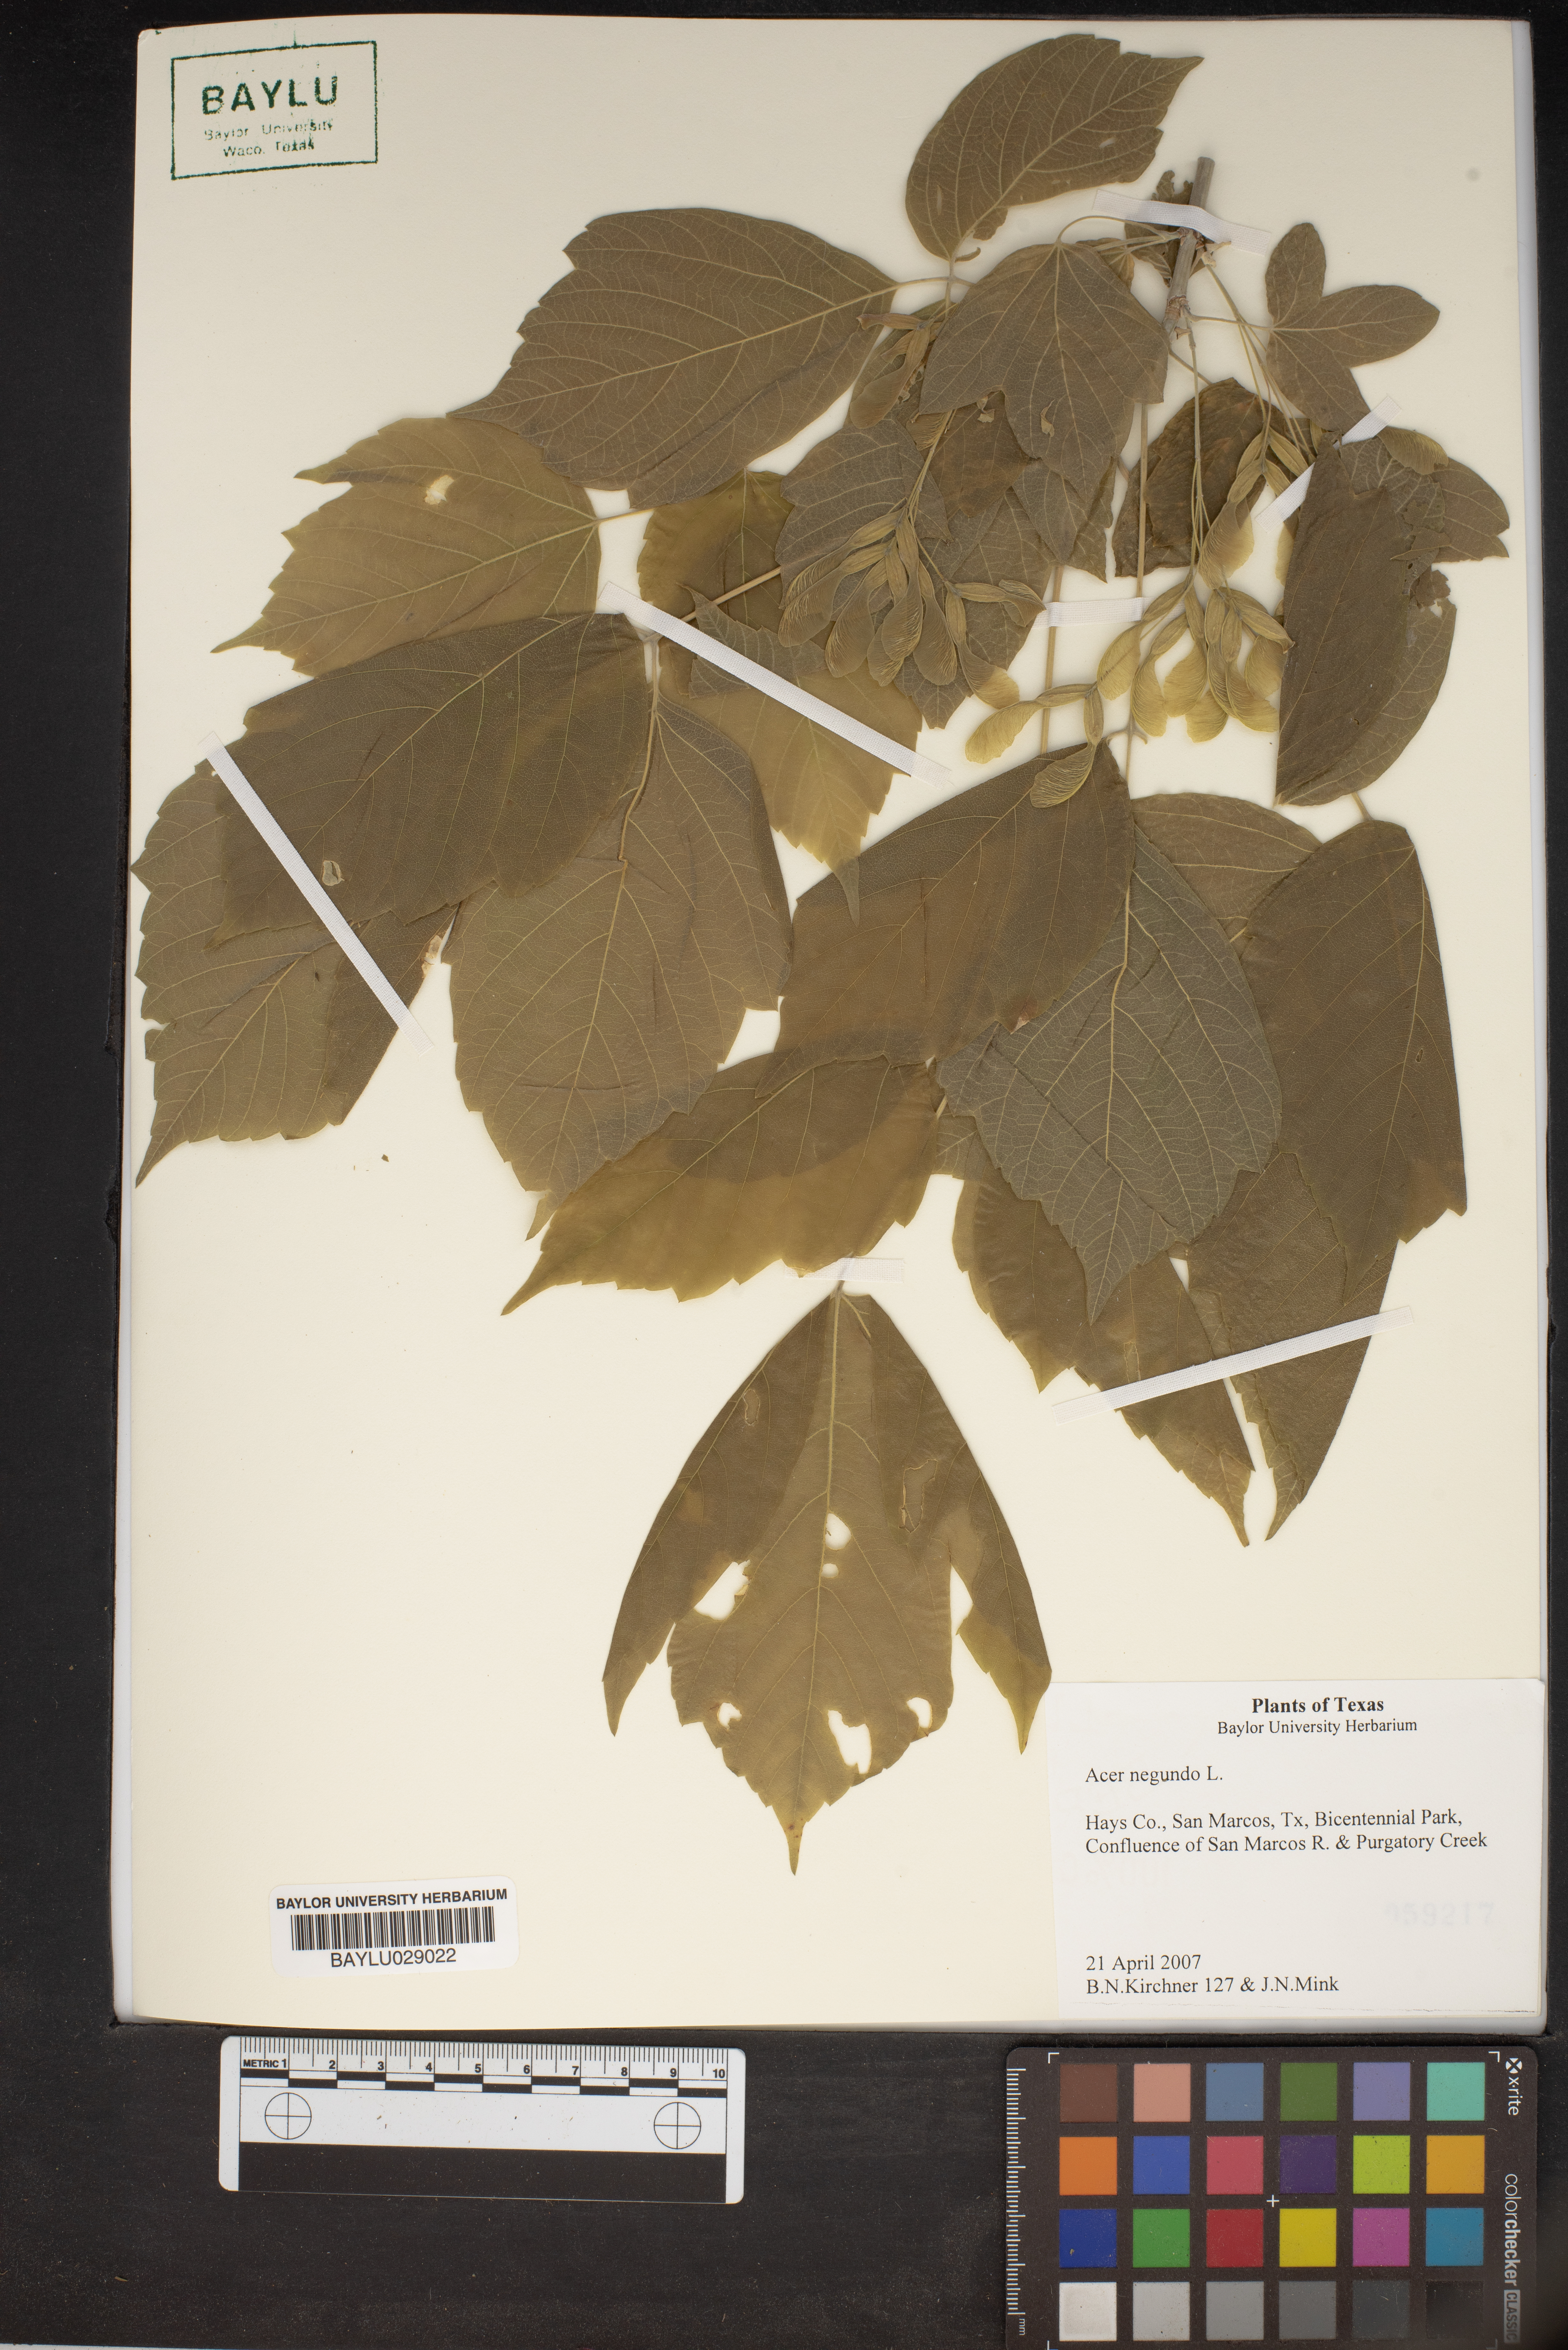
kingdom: Plantae
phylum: Tracheophyta
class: Magnoliopsida
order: Sapindales
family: Sapindaceae
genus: Acer
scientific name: Acer negundo
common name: Ashleaf maple
